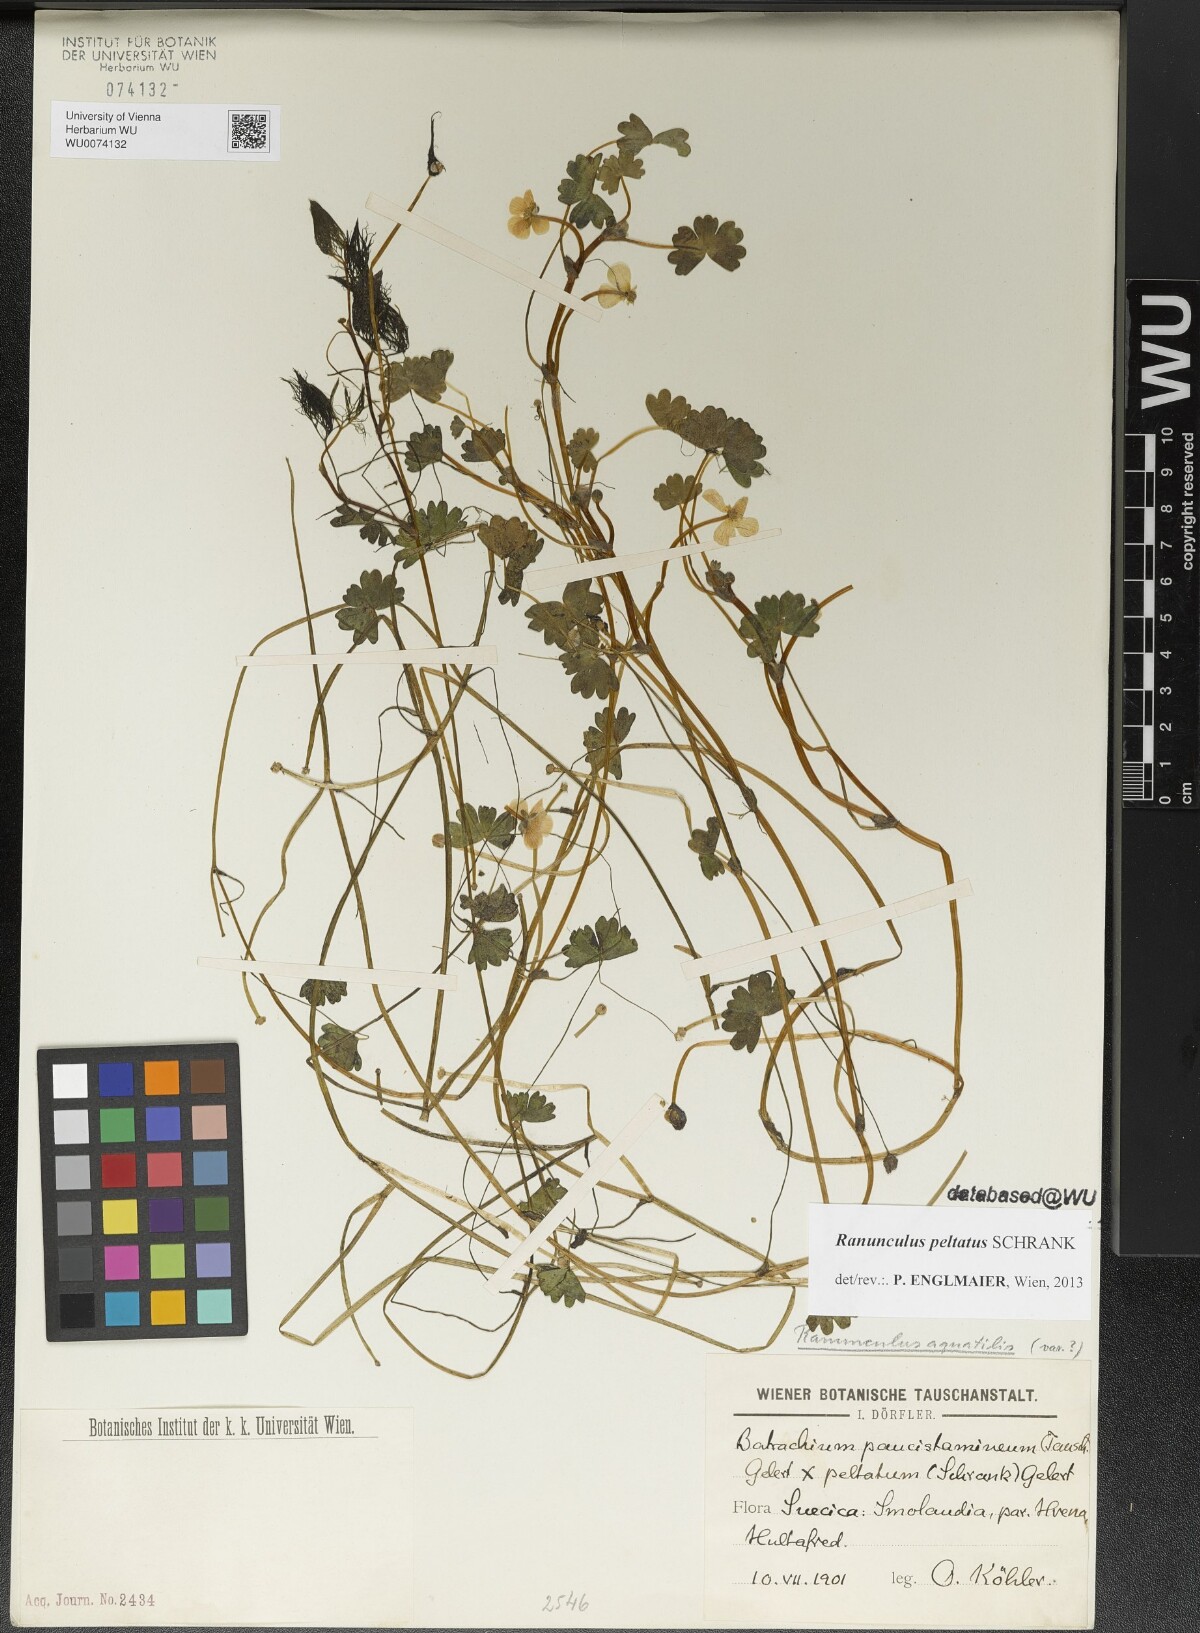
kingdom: Plantae
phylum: Tracheophyta
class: Magnoliopsida
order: Ranunculales
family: Ranunculaceae
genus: Ranunculus
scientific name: Ranunculus peltatus
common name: Pond water-crowfoot
